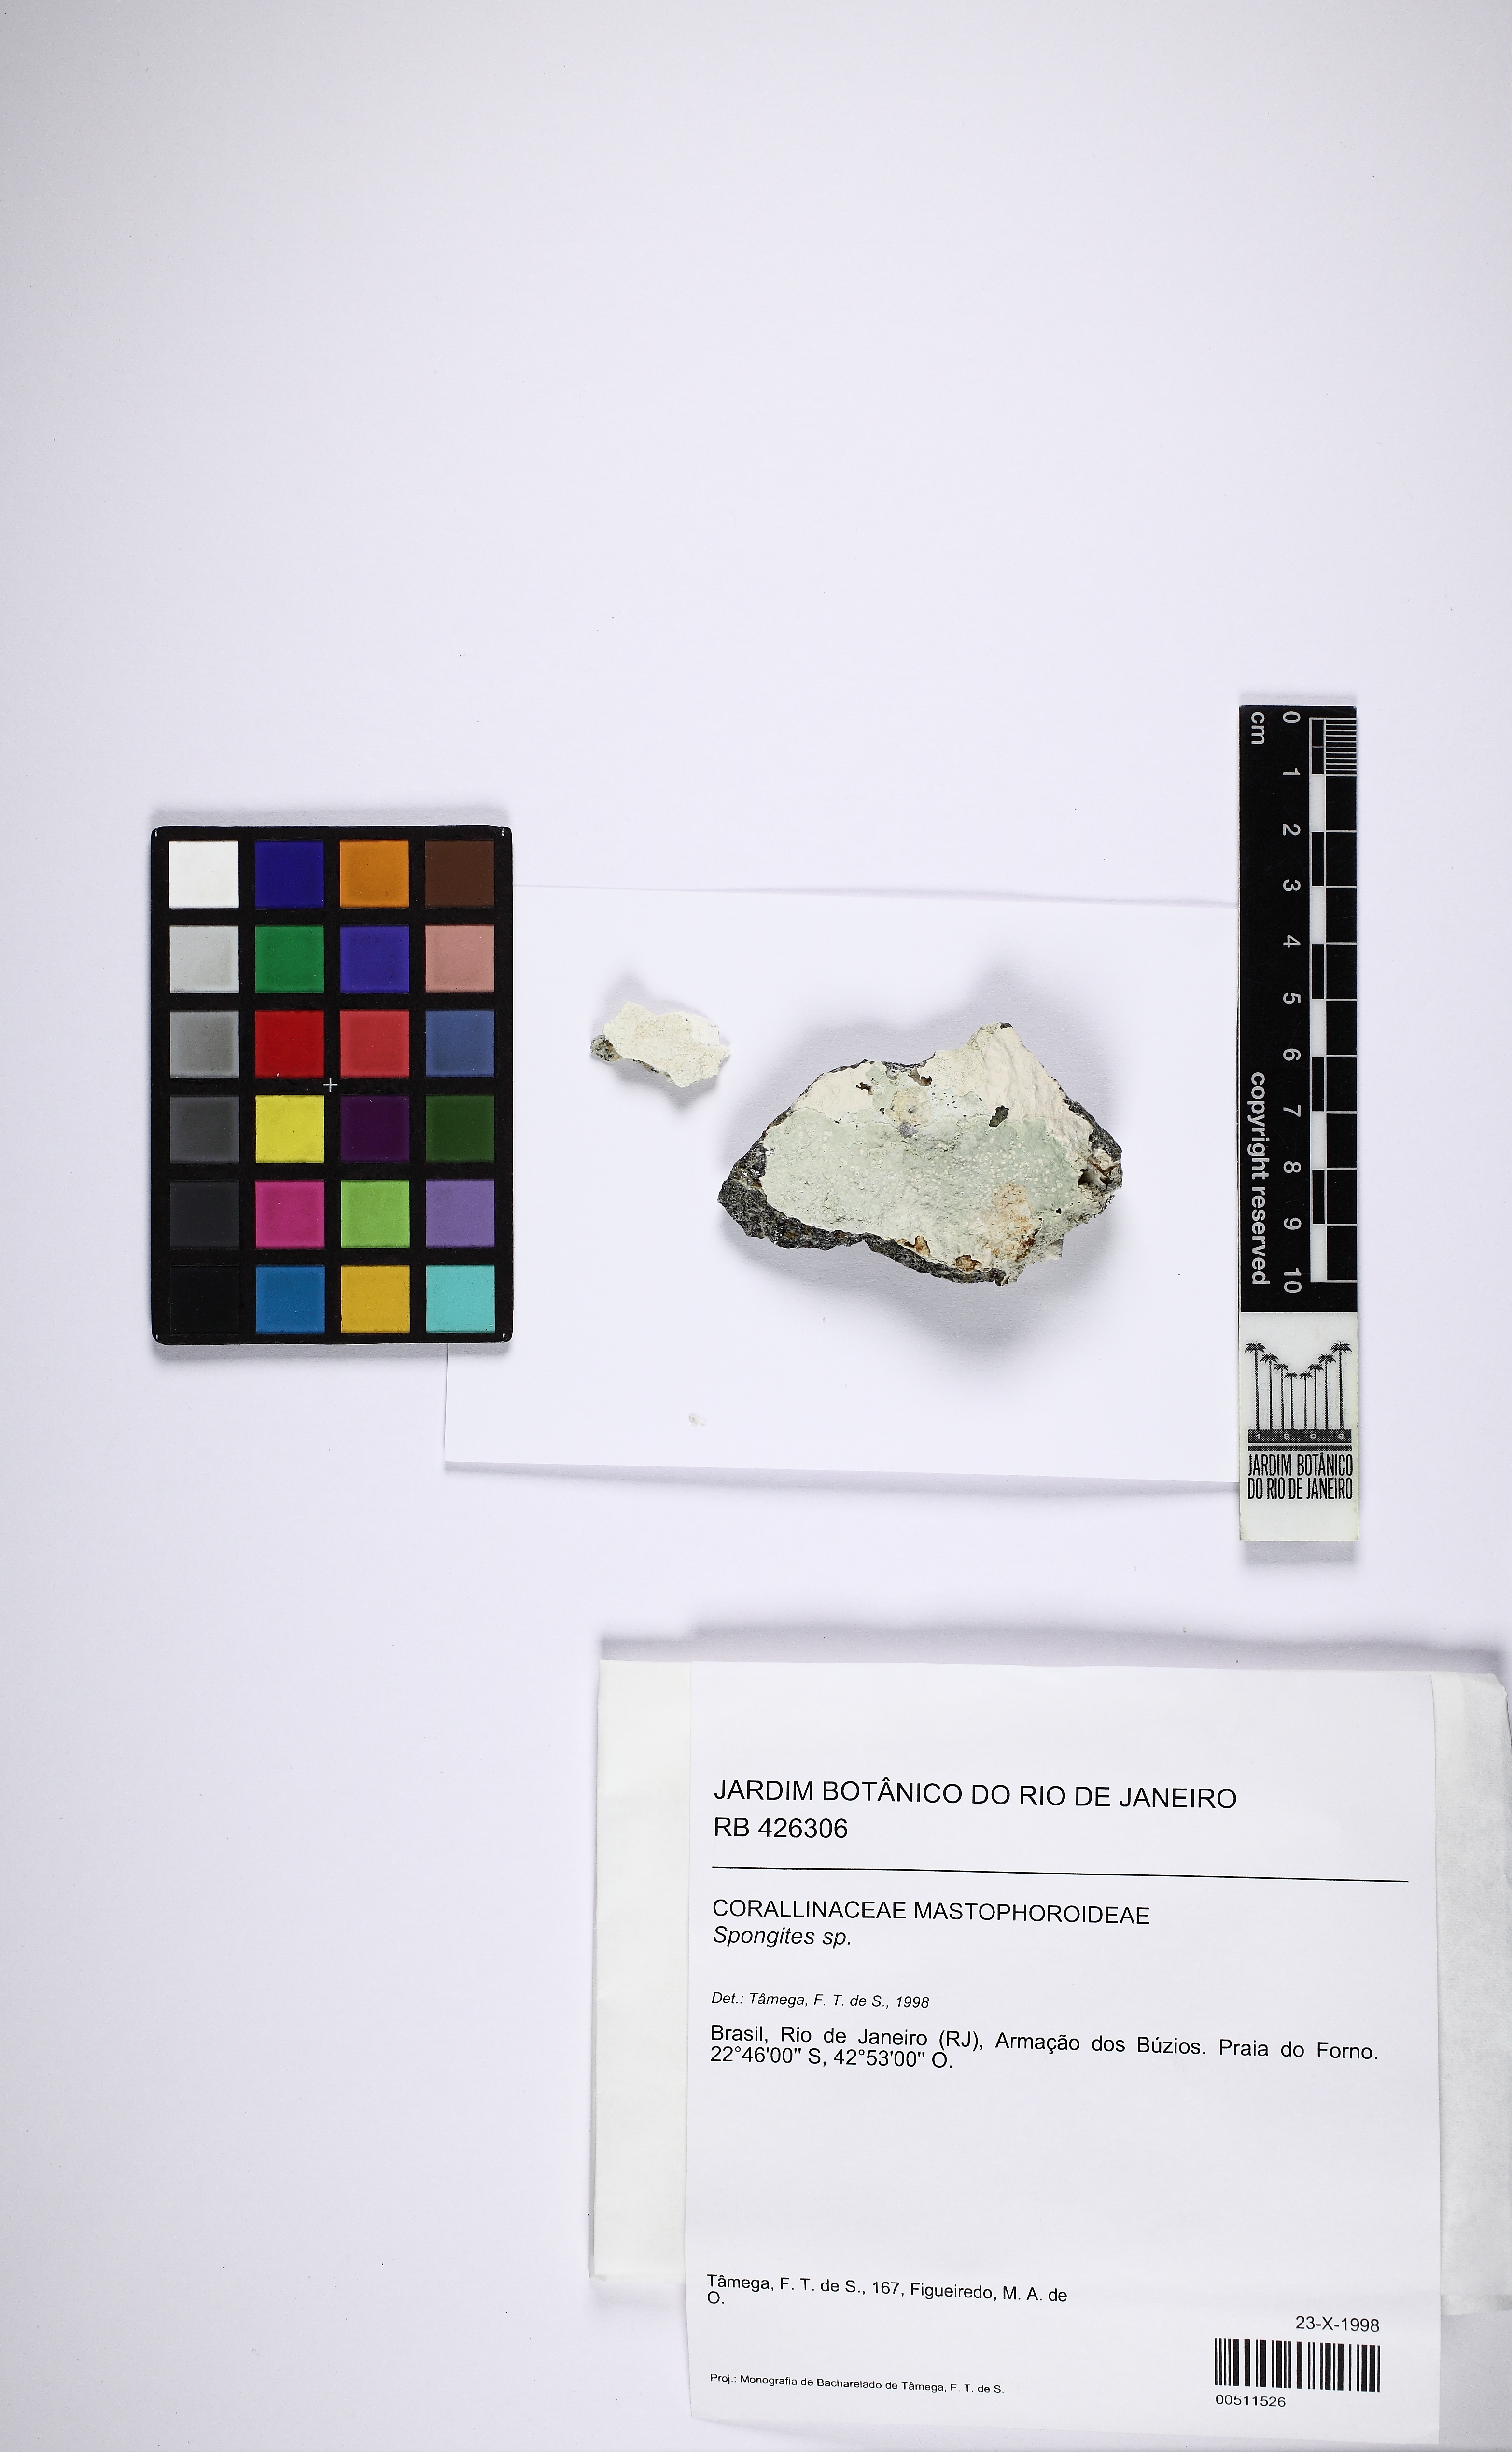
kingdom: Animalia
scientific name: Animalia
